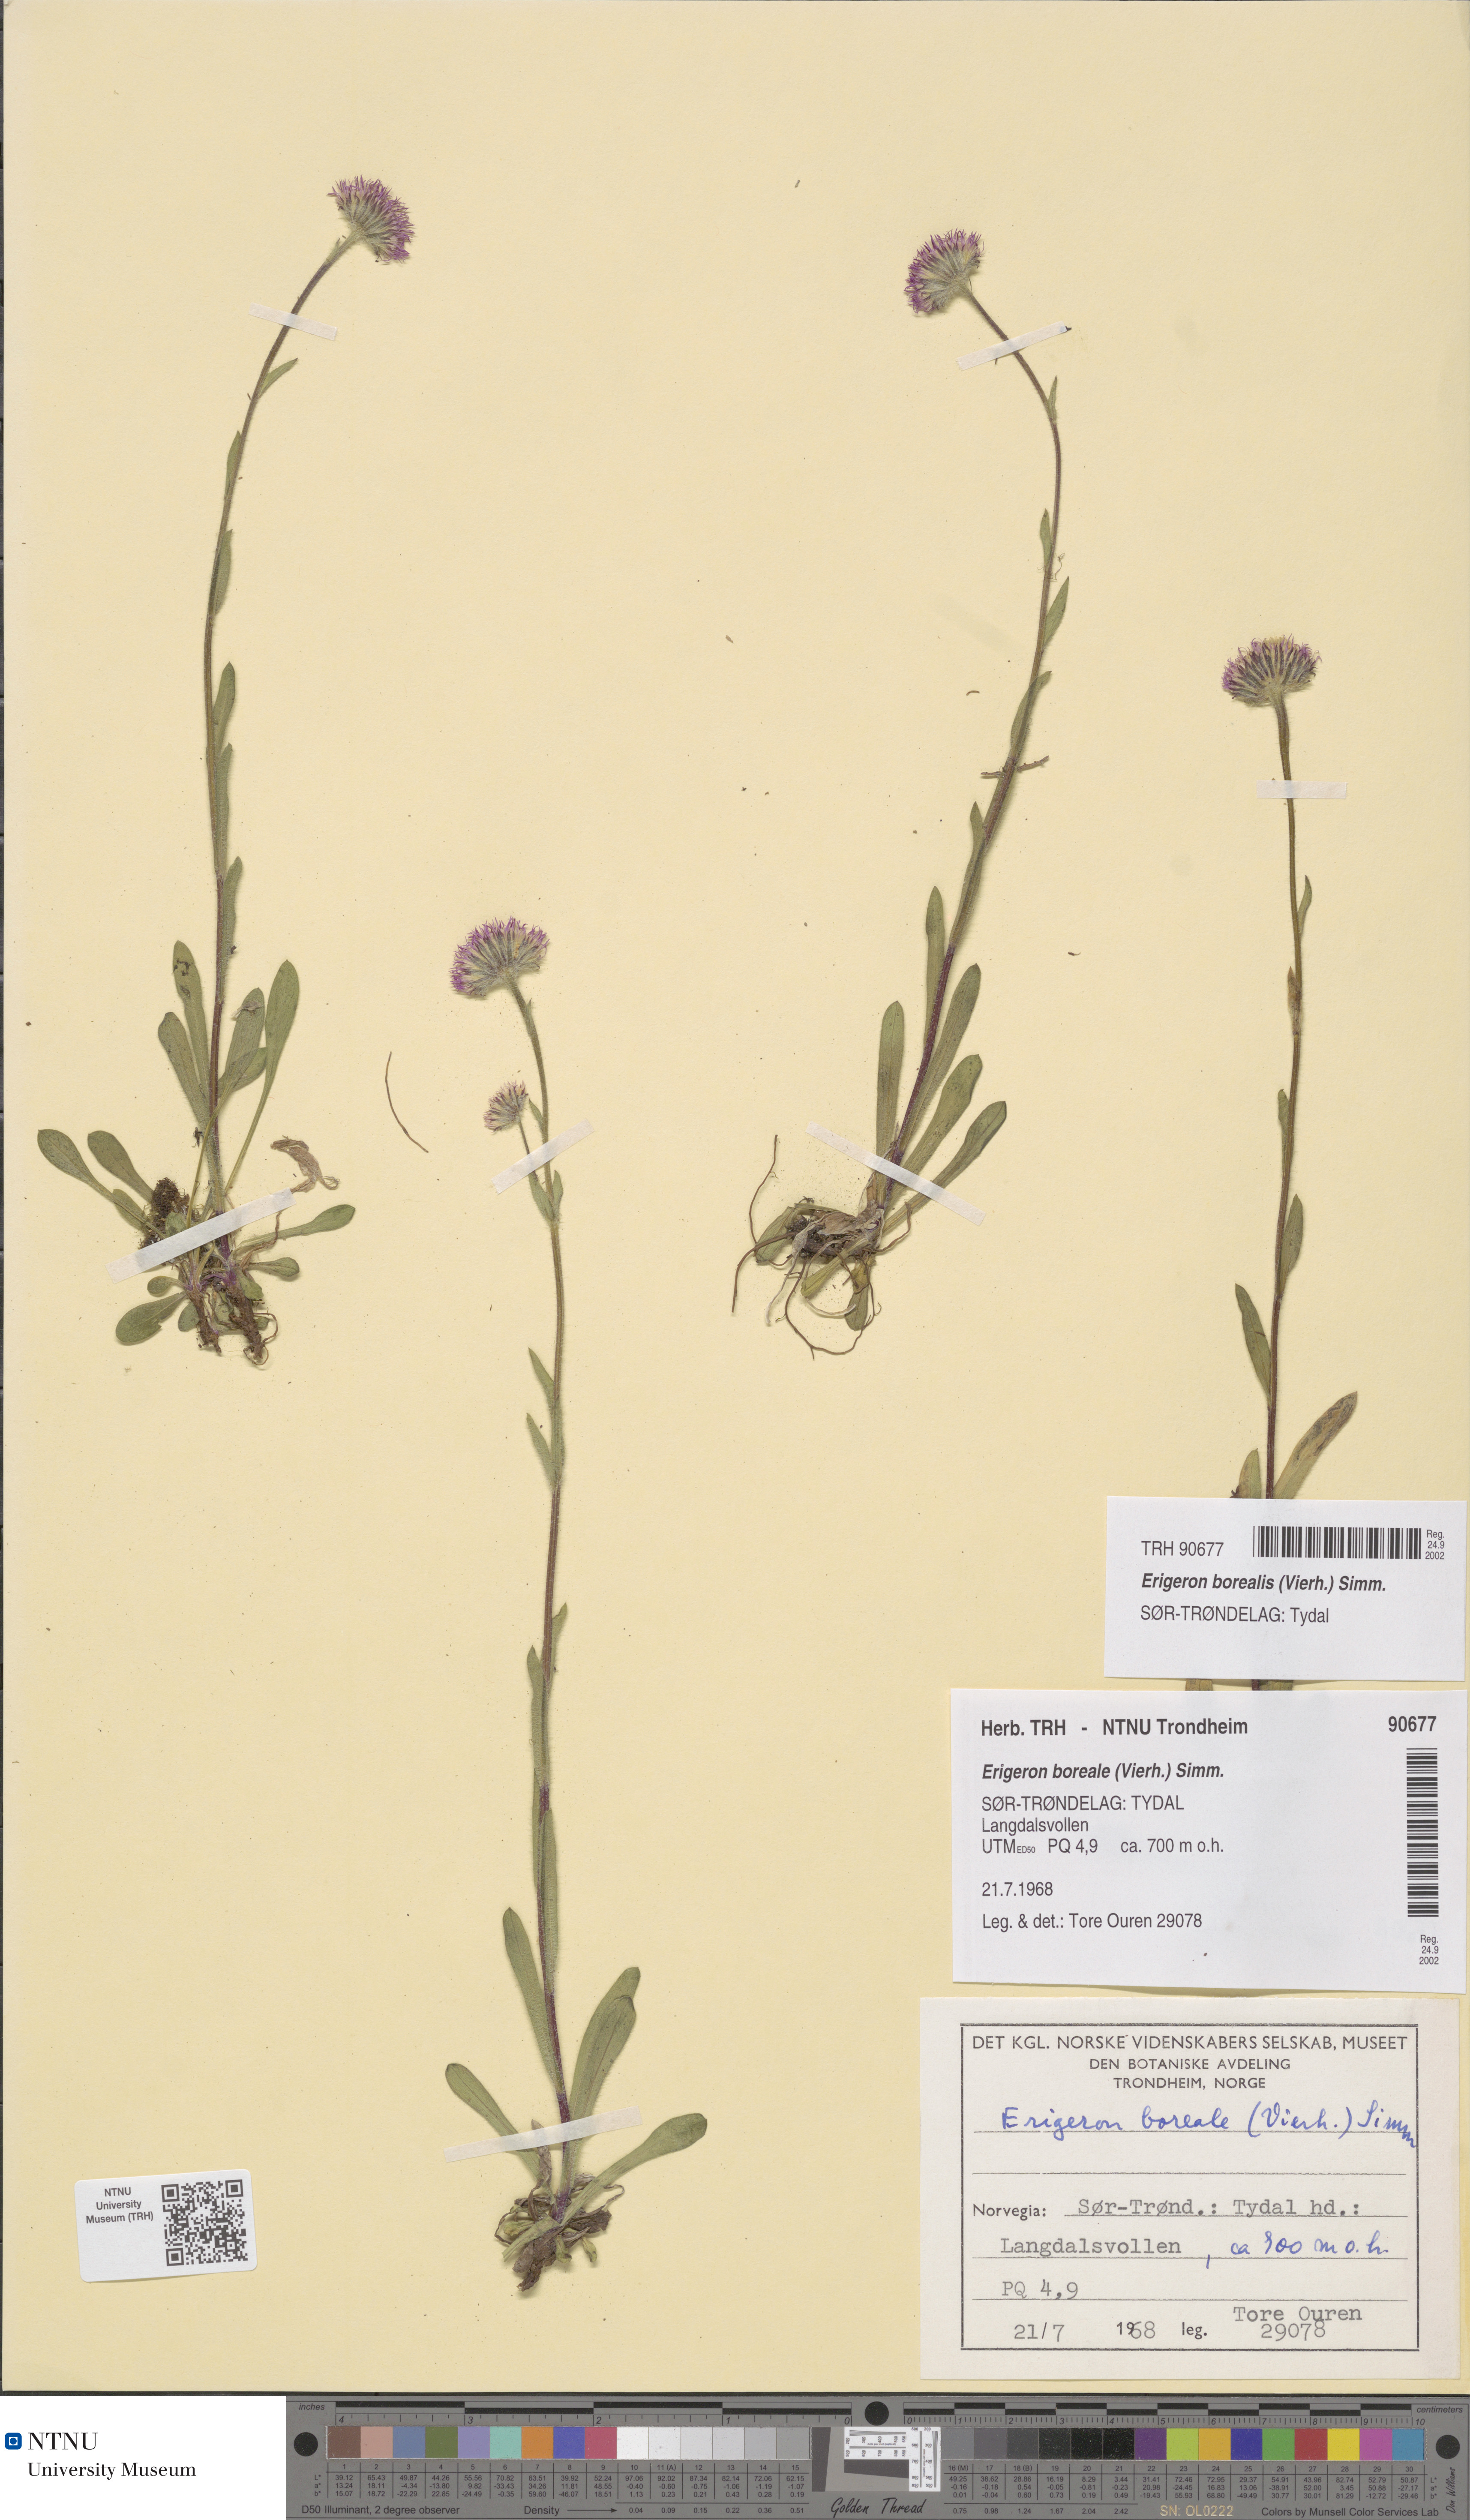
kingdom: Plantae
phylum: Tracheophyta
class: Magnoliopsida
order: Asterales
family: Asteraceae
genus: Erigeron
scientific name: Erigeron borealis
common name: Alpine fleabane
